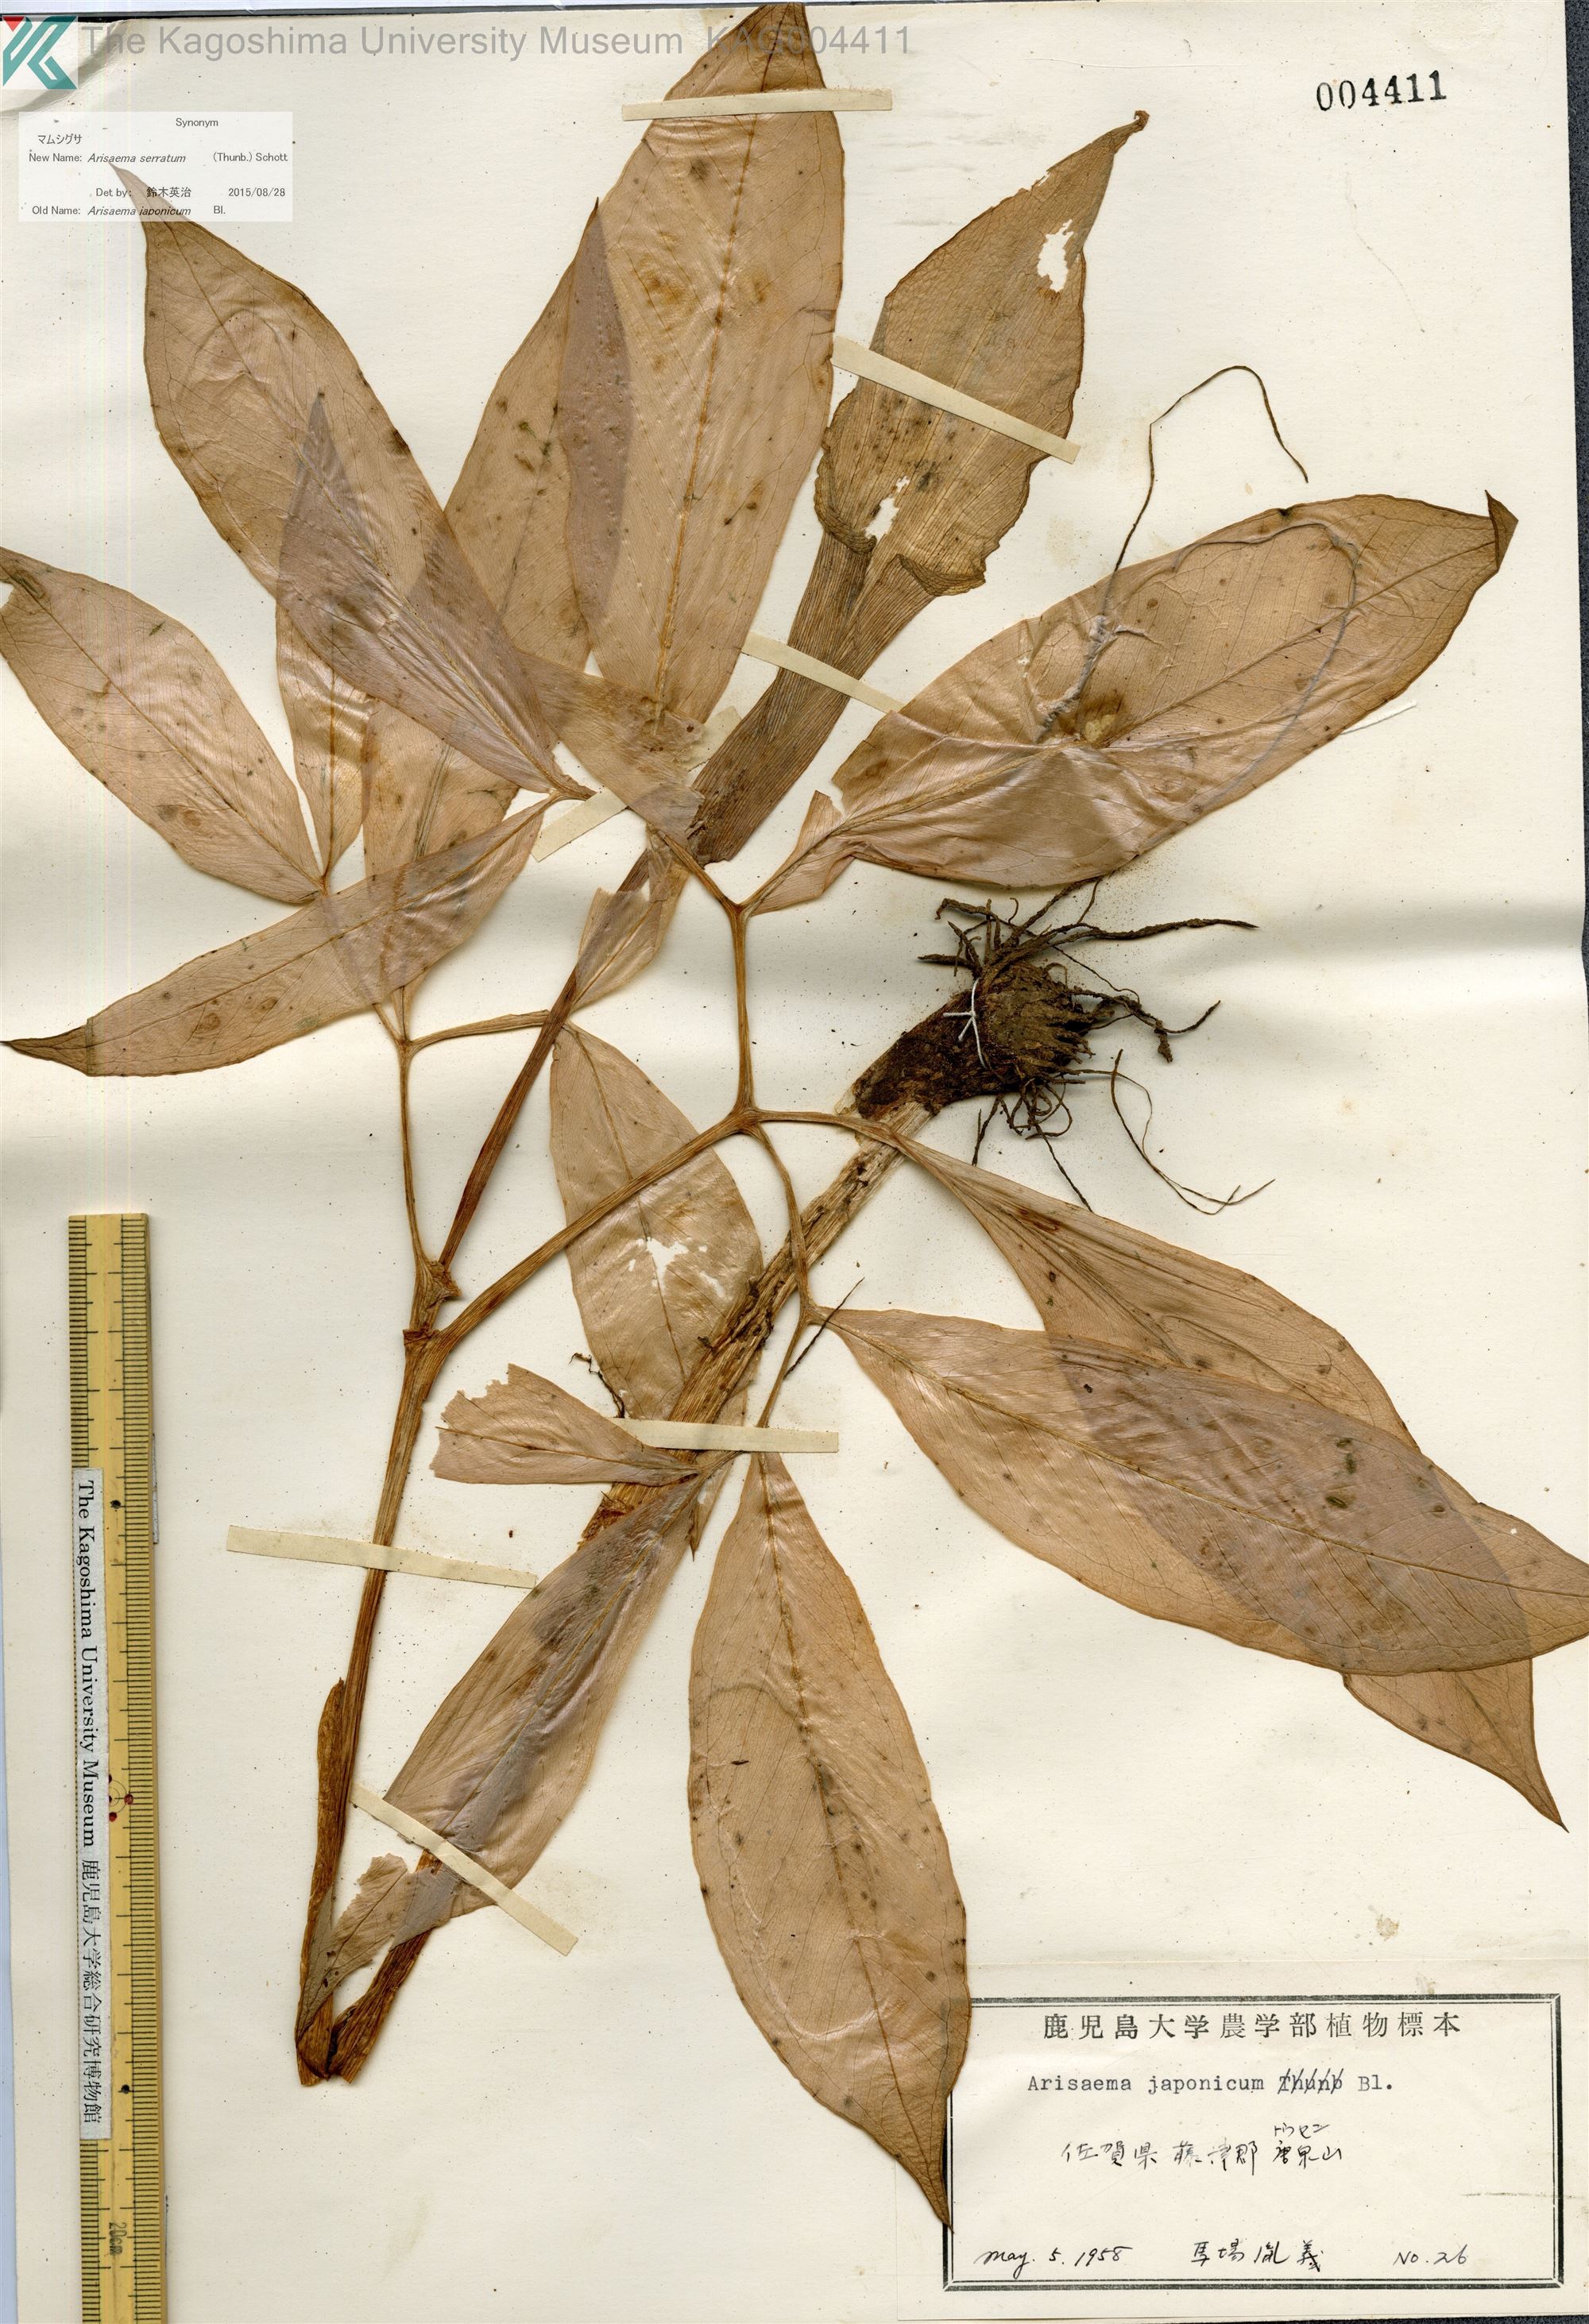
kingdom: Plantae
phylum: Tracheophyta
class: Liliopsida
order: Alismatales
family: Araceae
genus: Arisaema
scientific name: Arisaema serratum
